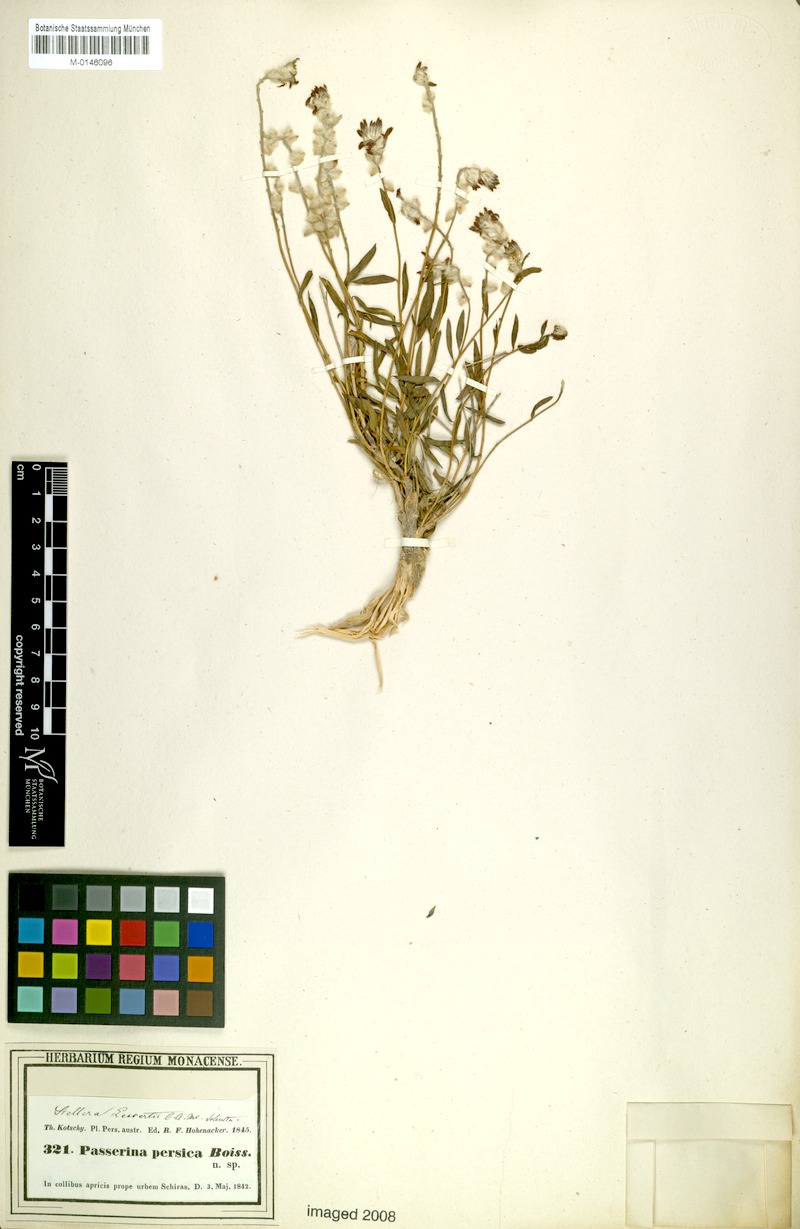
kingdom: Plantae
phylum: Tracheophyta
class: Magnoliopsida
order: Malvales
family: Thymelaeaceae
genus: Diarthron
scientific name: Diarthron lessertii
